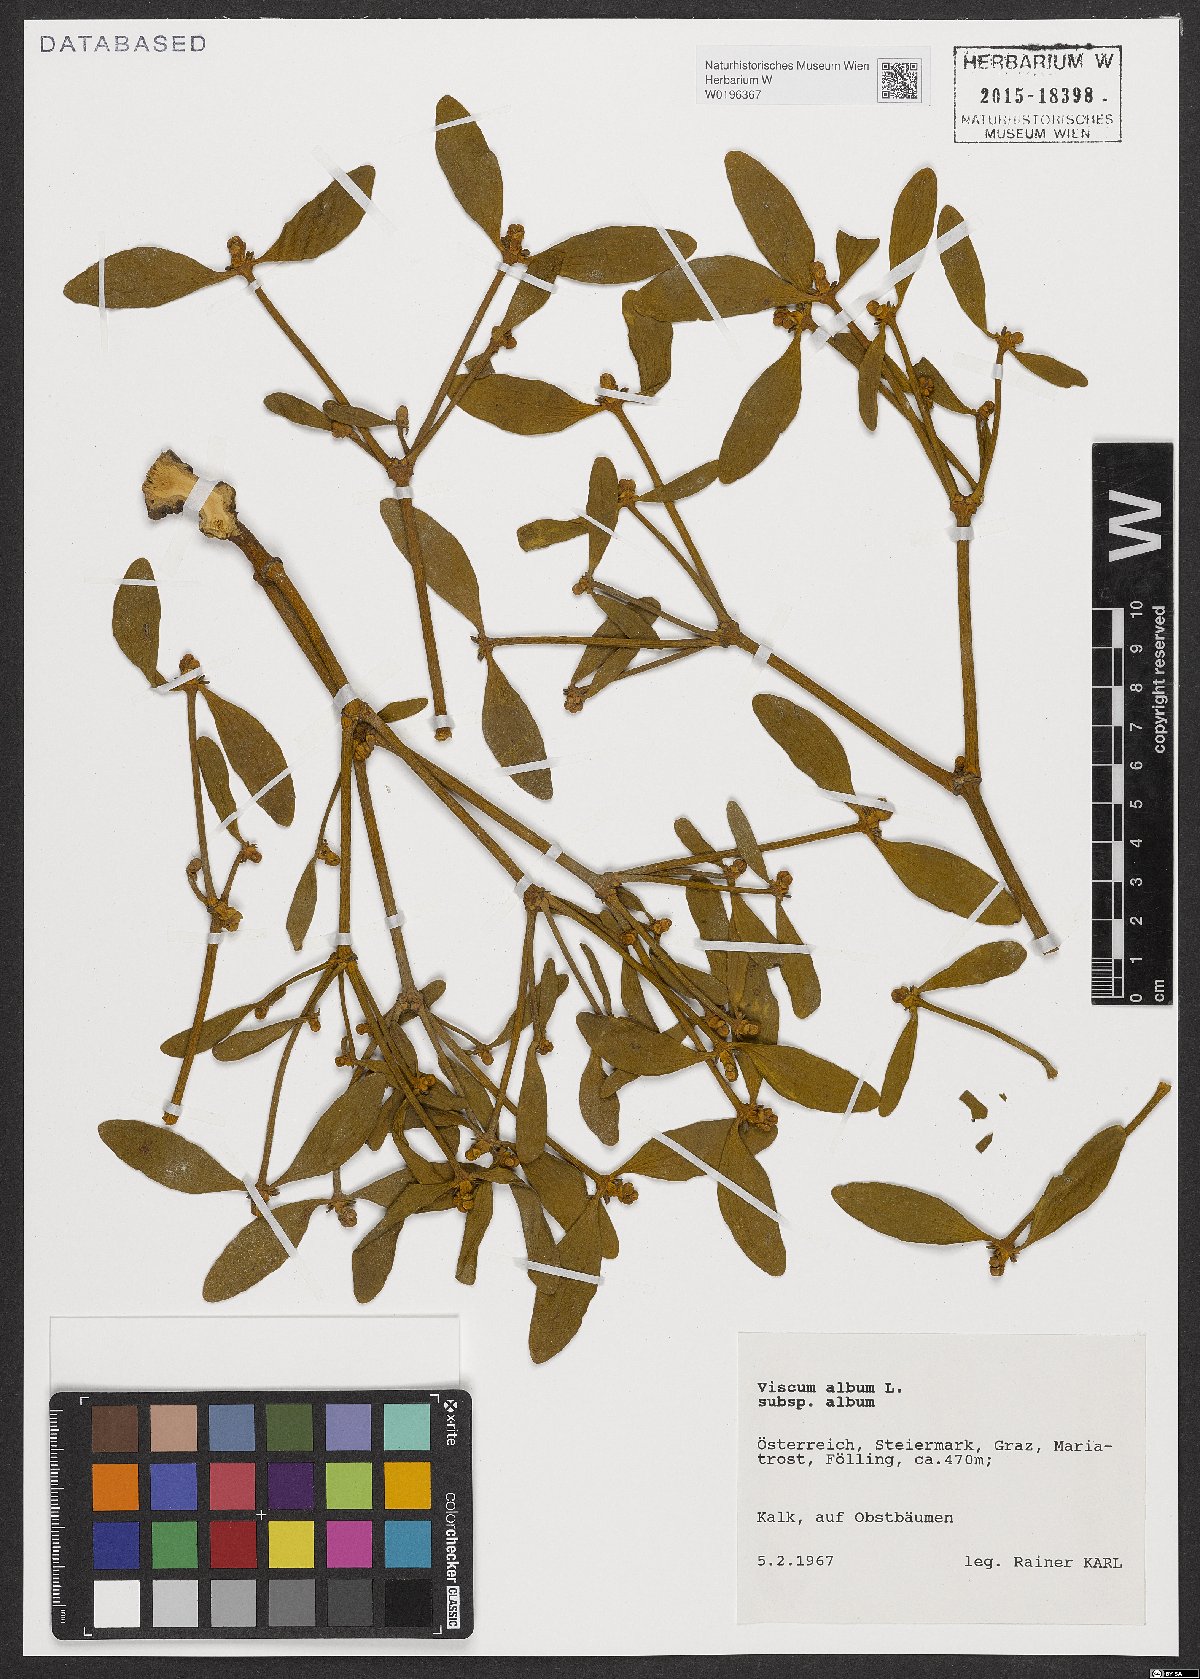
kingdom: Plantae
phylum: Tracheophyta
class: Magnoliopsida
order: Santalales
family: Viscaceae
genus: Viscum
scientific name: Viscum album
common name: Mistletoe
